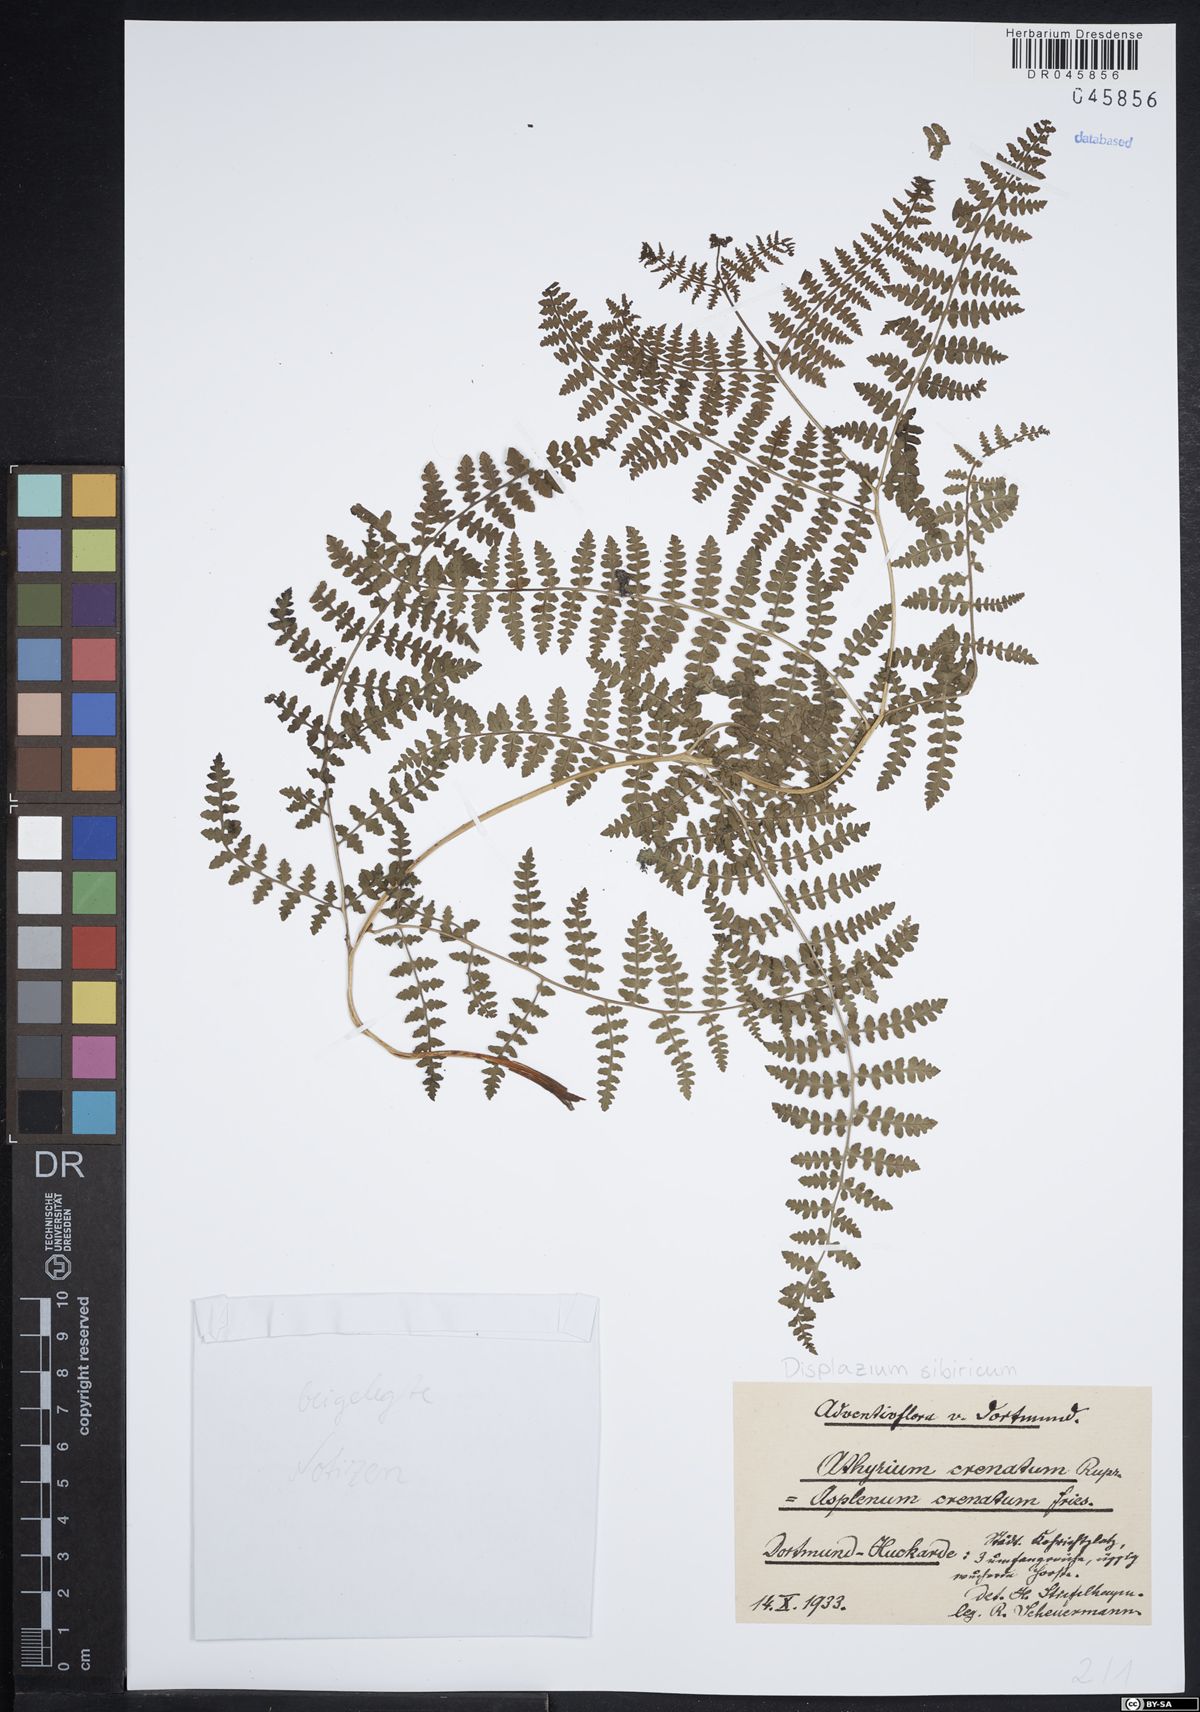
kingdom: Plantae
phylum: Tracheophyta
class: Polypodiopsida
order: Polypodiales
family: Athyriaceae
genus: Diplazium
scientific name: Diplazium sibiricum
